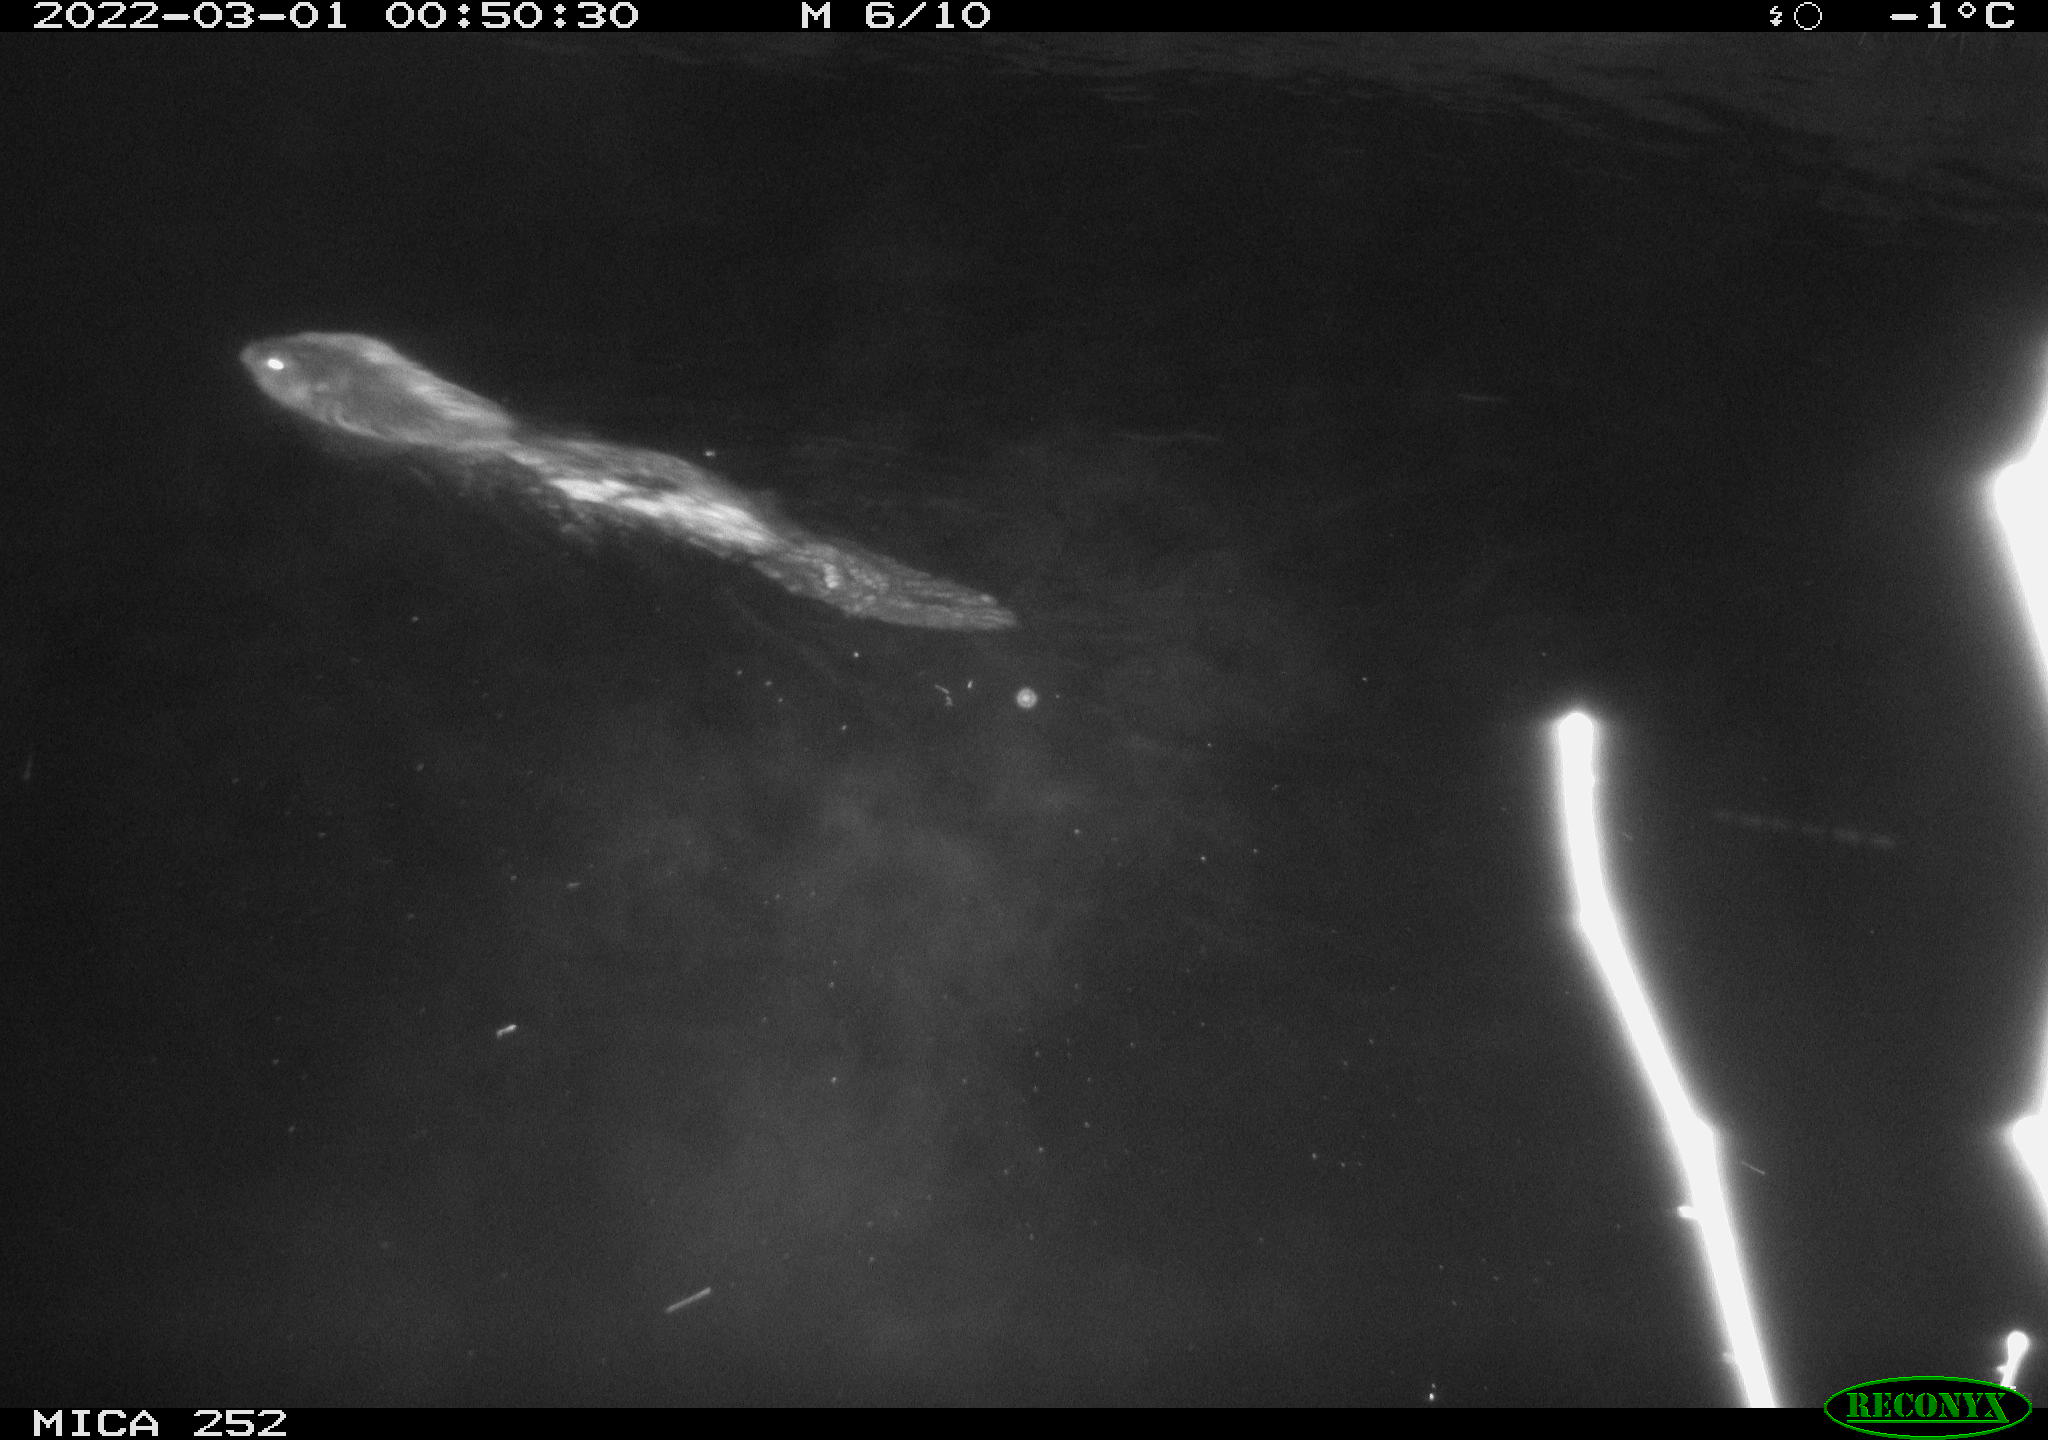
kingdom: Animalia
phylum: Chordata
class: Mammalia
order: Rodentia
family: Castoridae
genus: Castor
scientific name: Castor fiber
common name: Eurasian beaver
